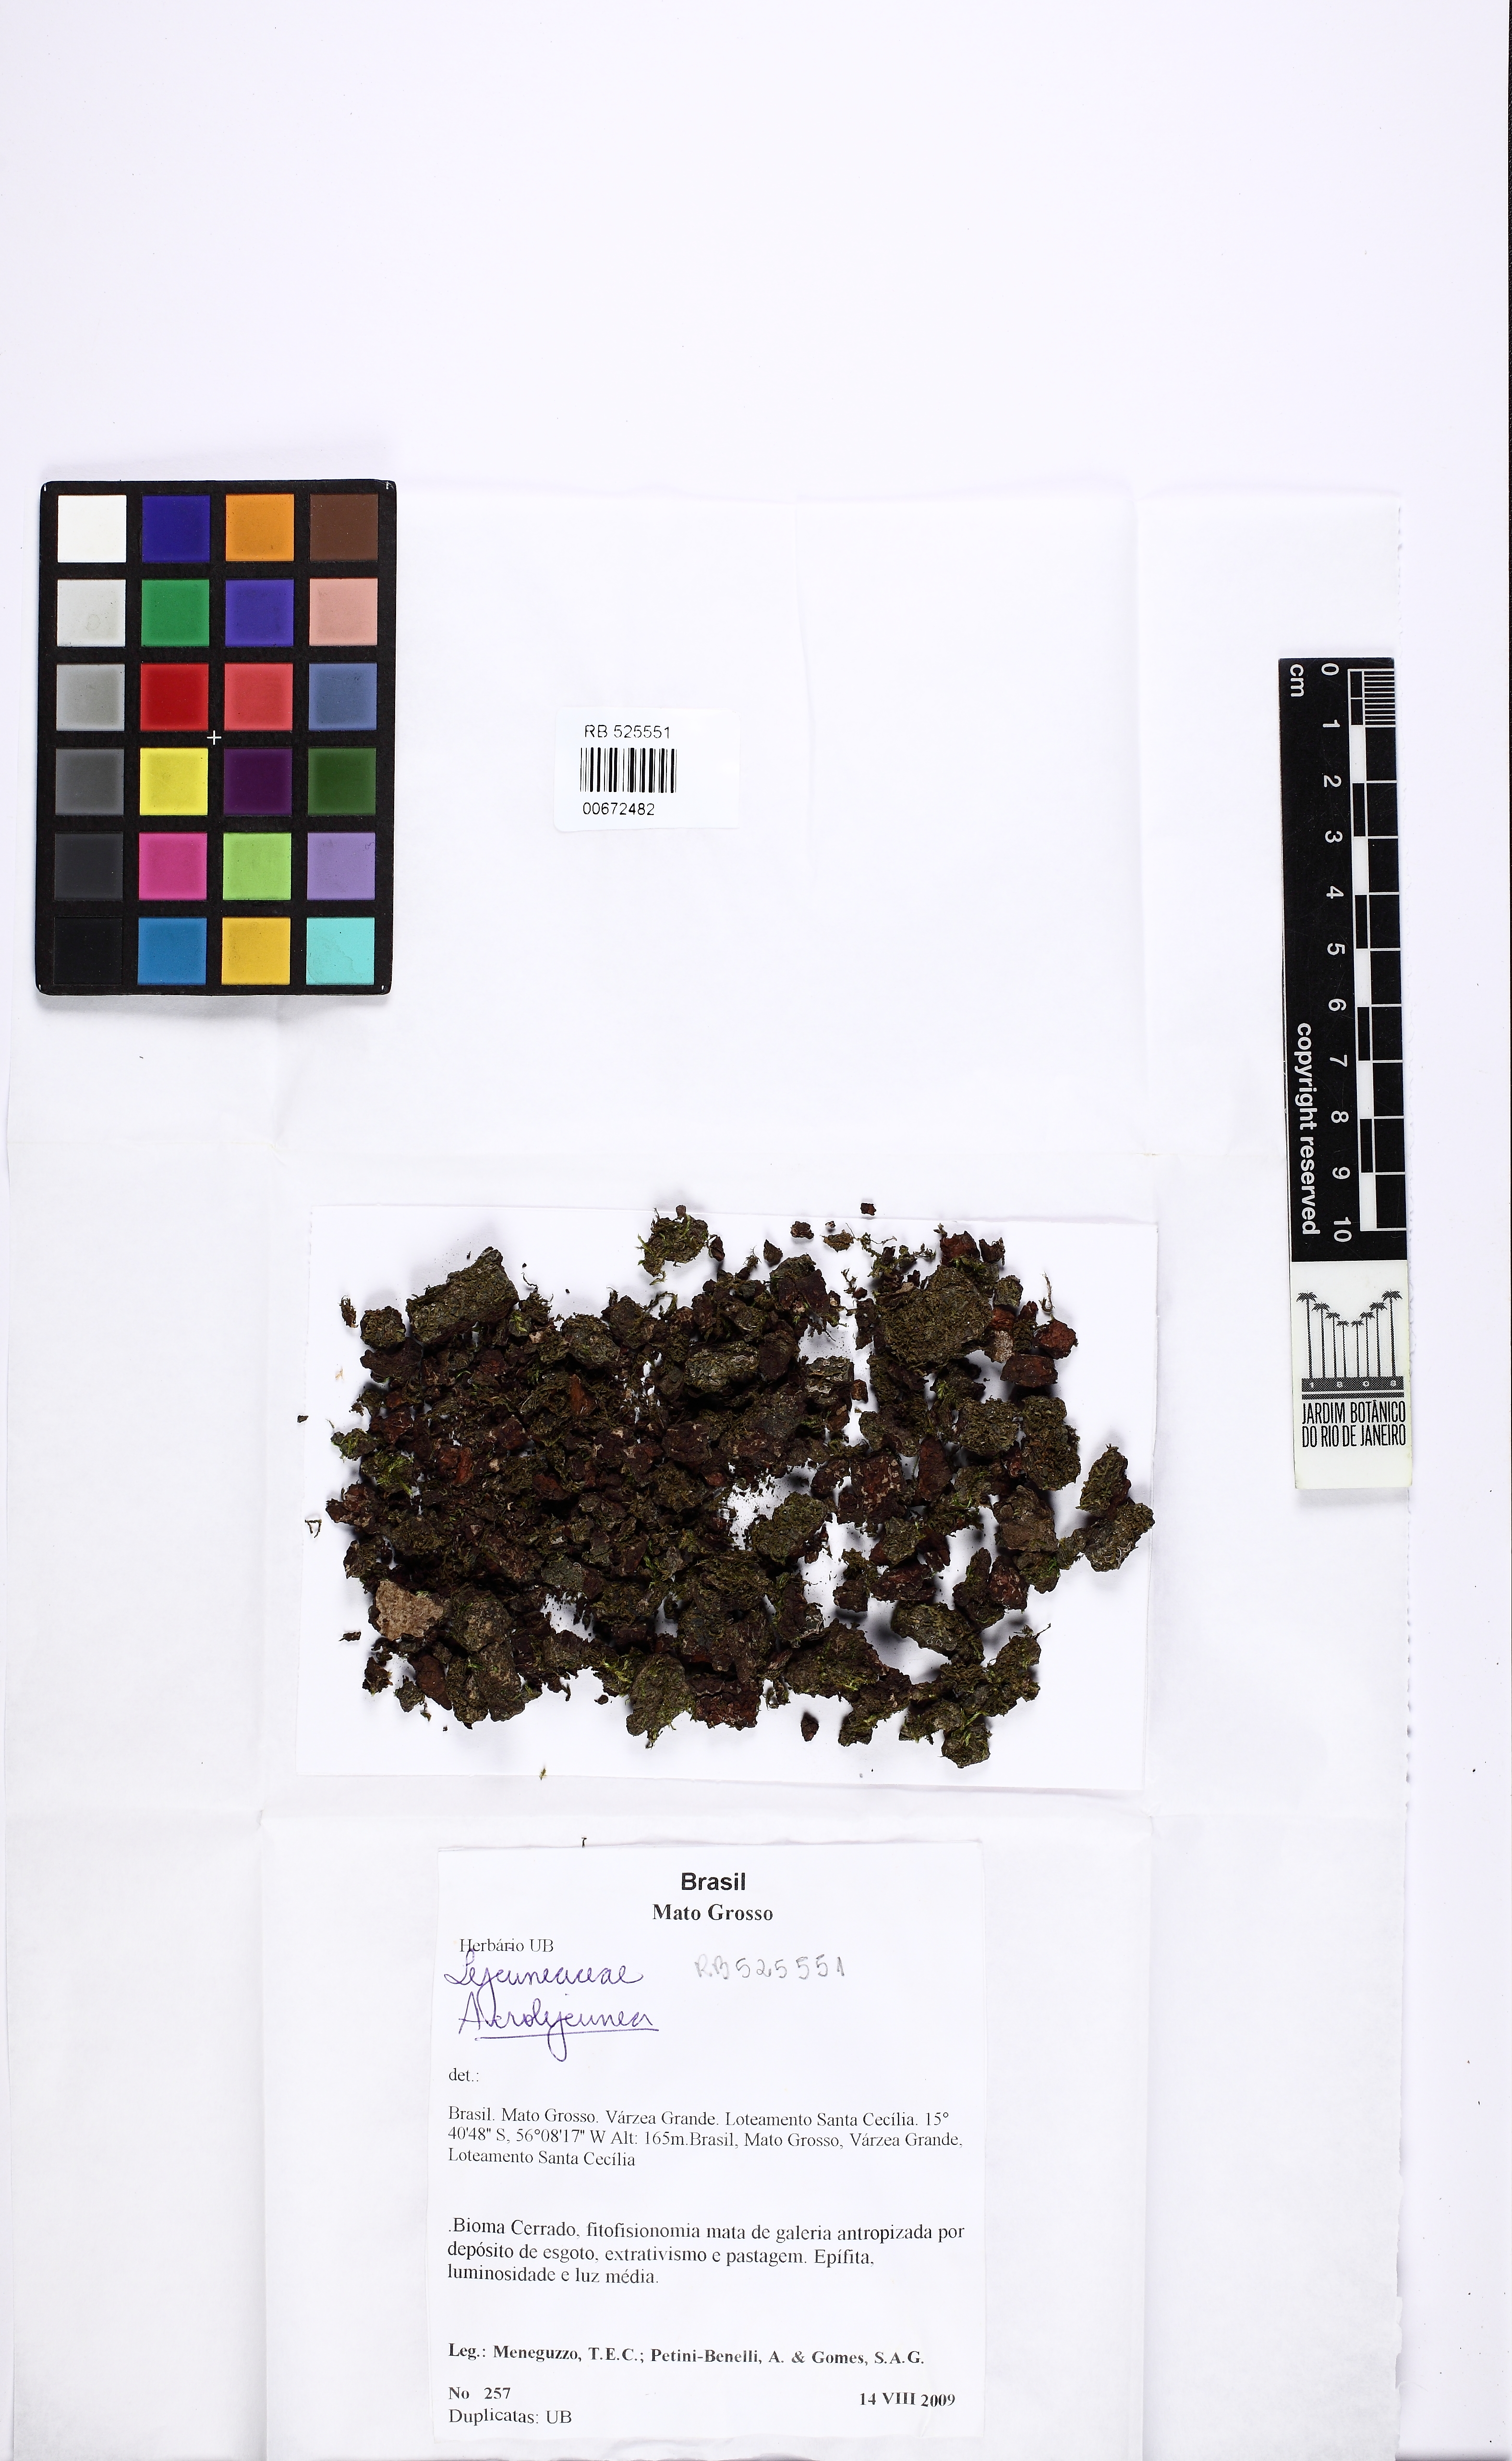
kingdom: Plantae
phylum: Marchantiophyta
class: Jungermanniopsida
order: Porellales
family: Lejeuneaceae
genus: Acrolejeunea
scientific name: Acrolejeunea
